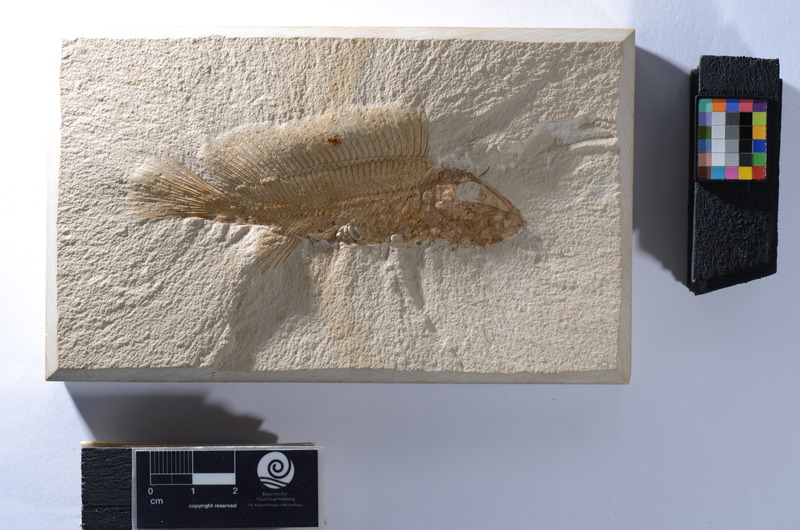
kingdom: Animalia
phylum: Chordata
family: Macrosemiidae
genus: Macrosemius
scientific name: Macrosemius rostratus
